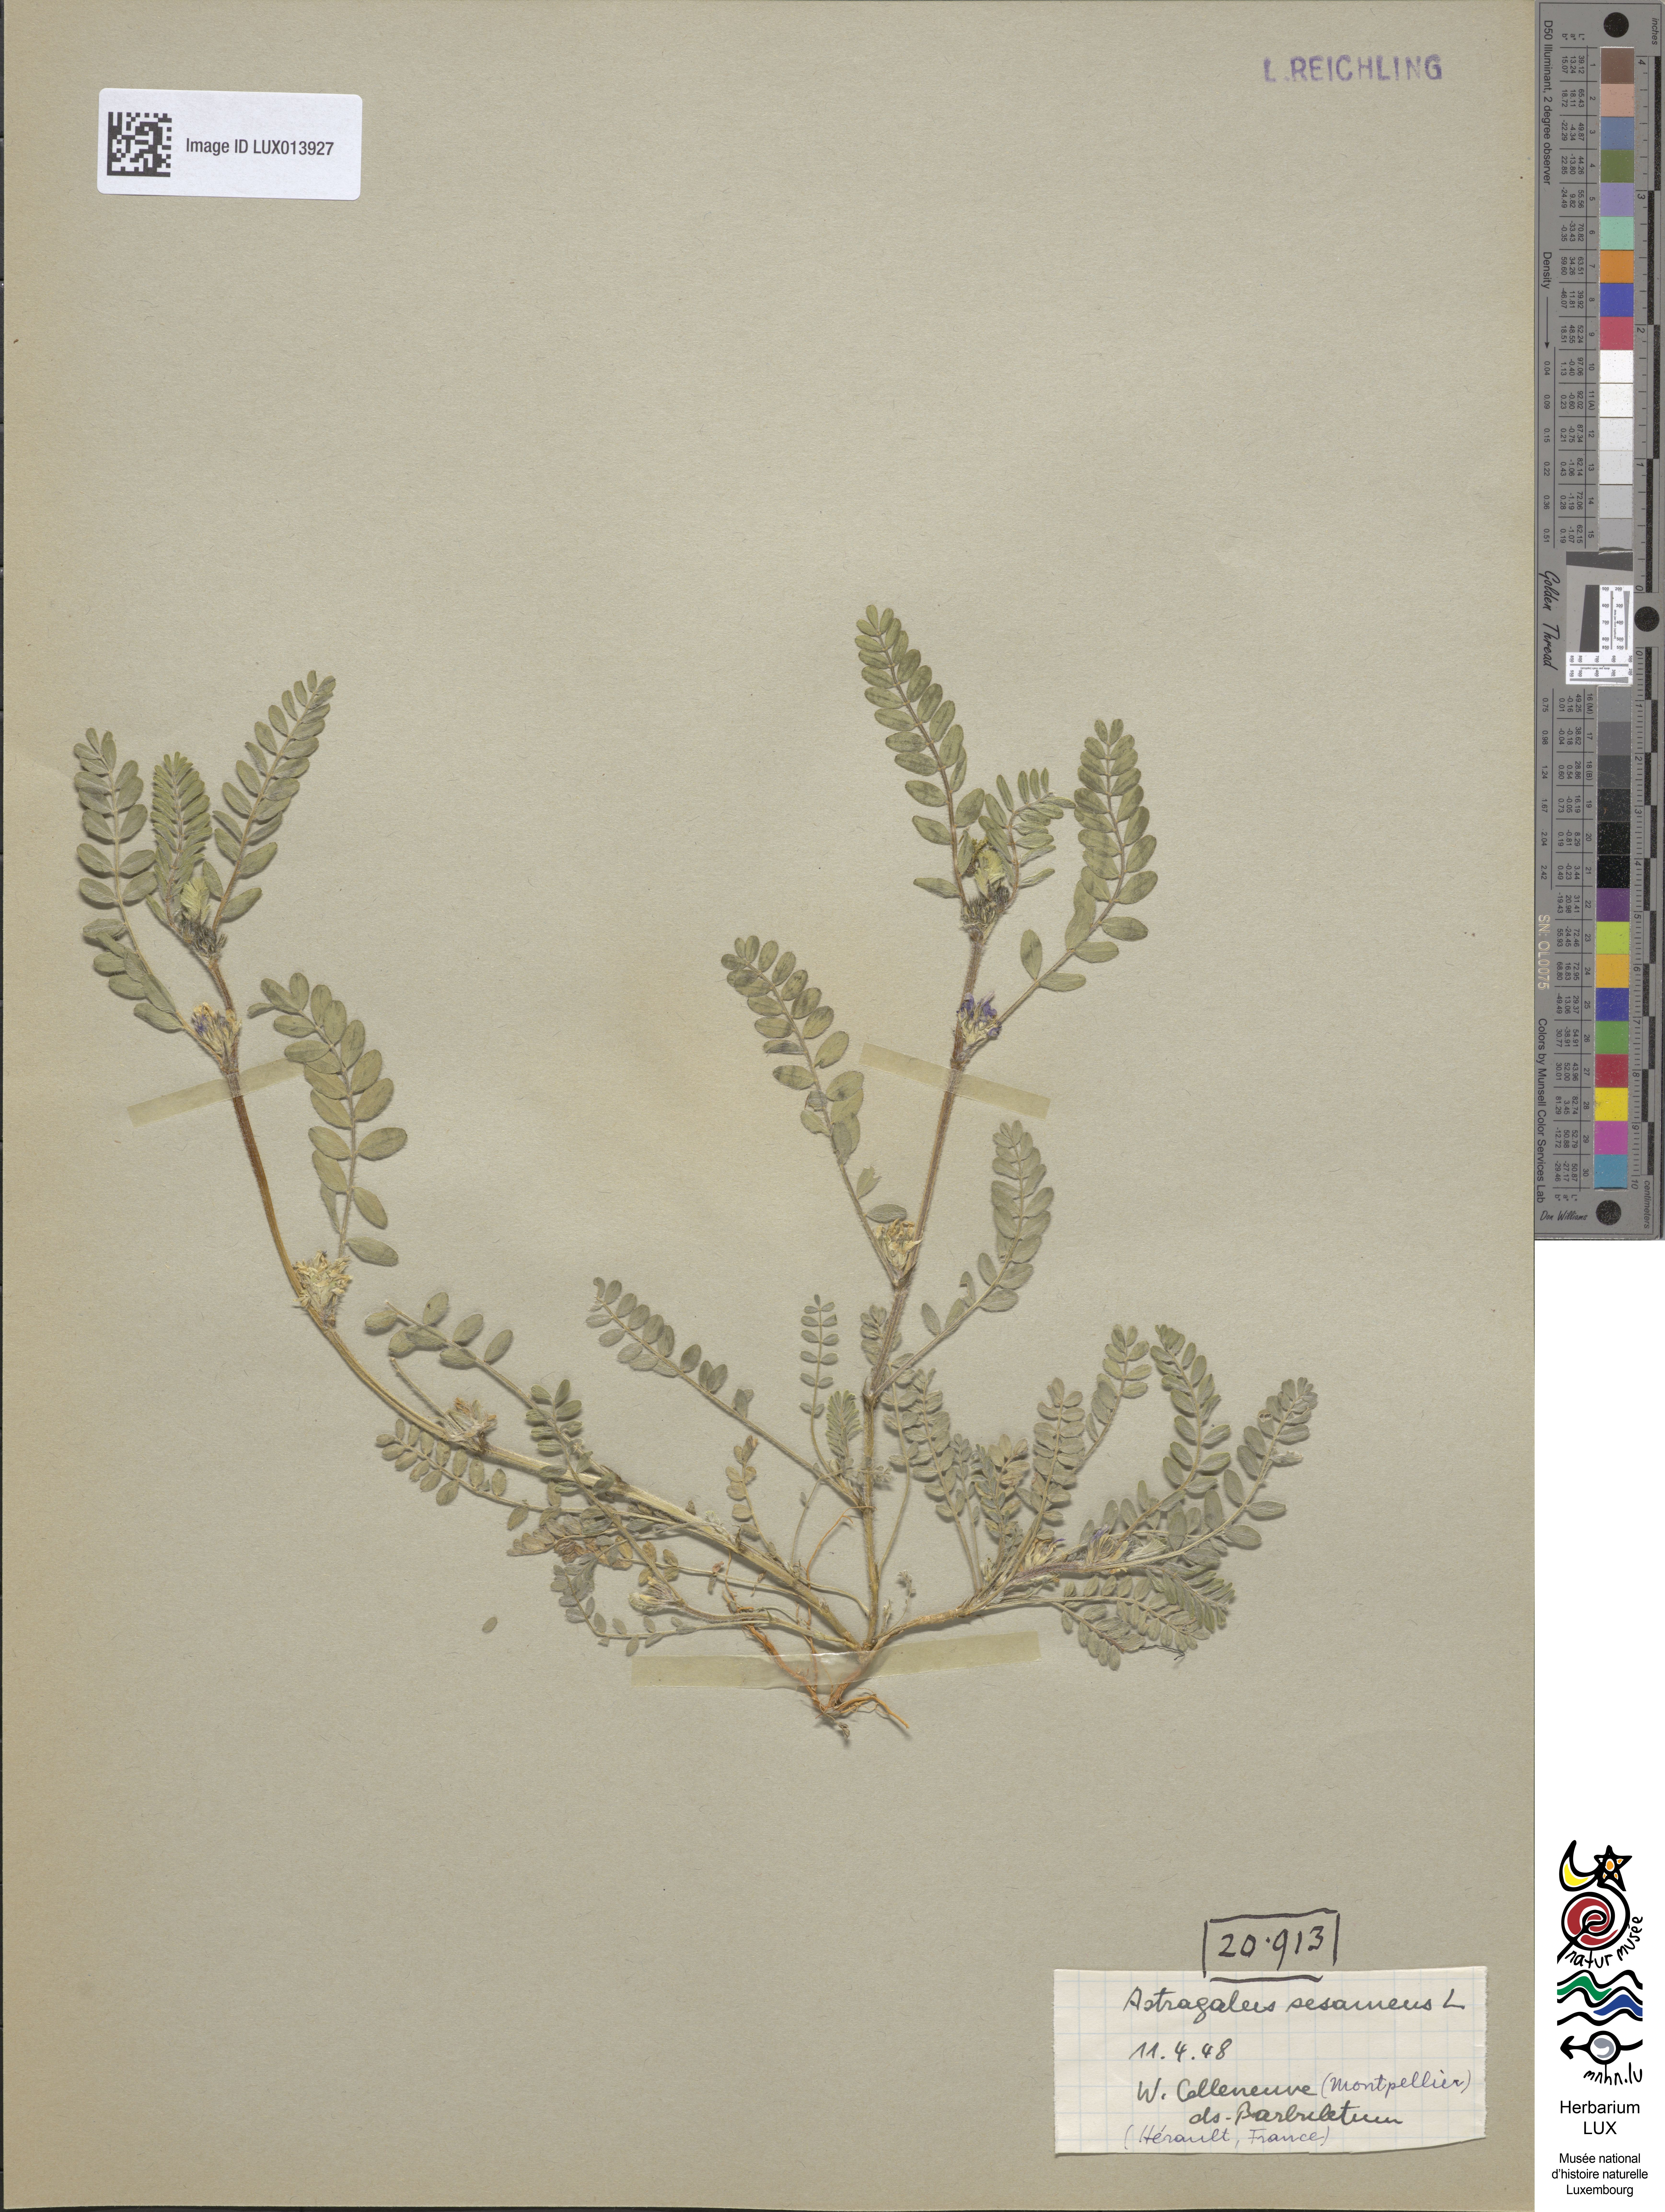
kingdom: Plantae
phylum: Tracheophyta
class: Magnoliopsida
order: Fabales
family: Fabaceae
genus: Astragalus
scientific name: Astragalus sesameus
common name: Purple milk-vetch
